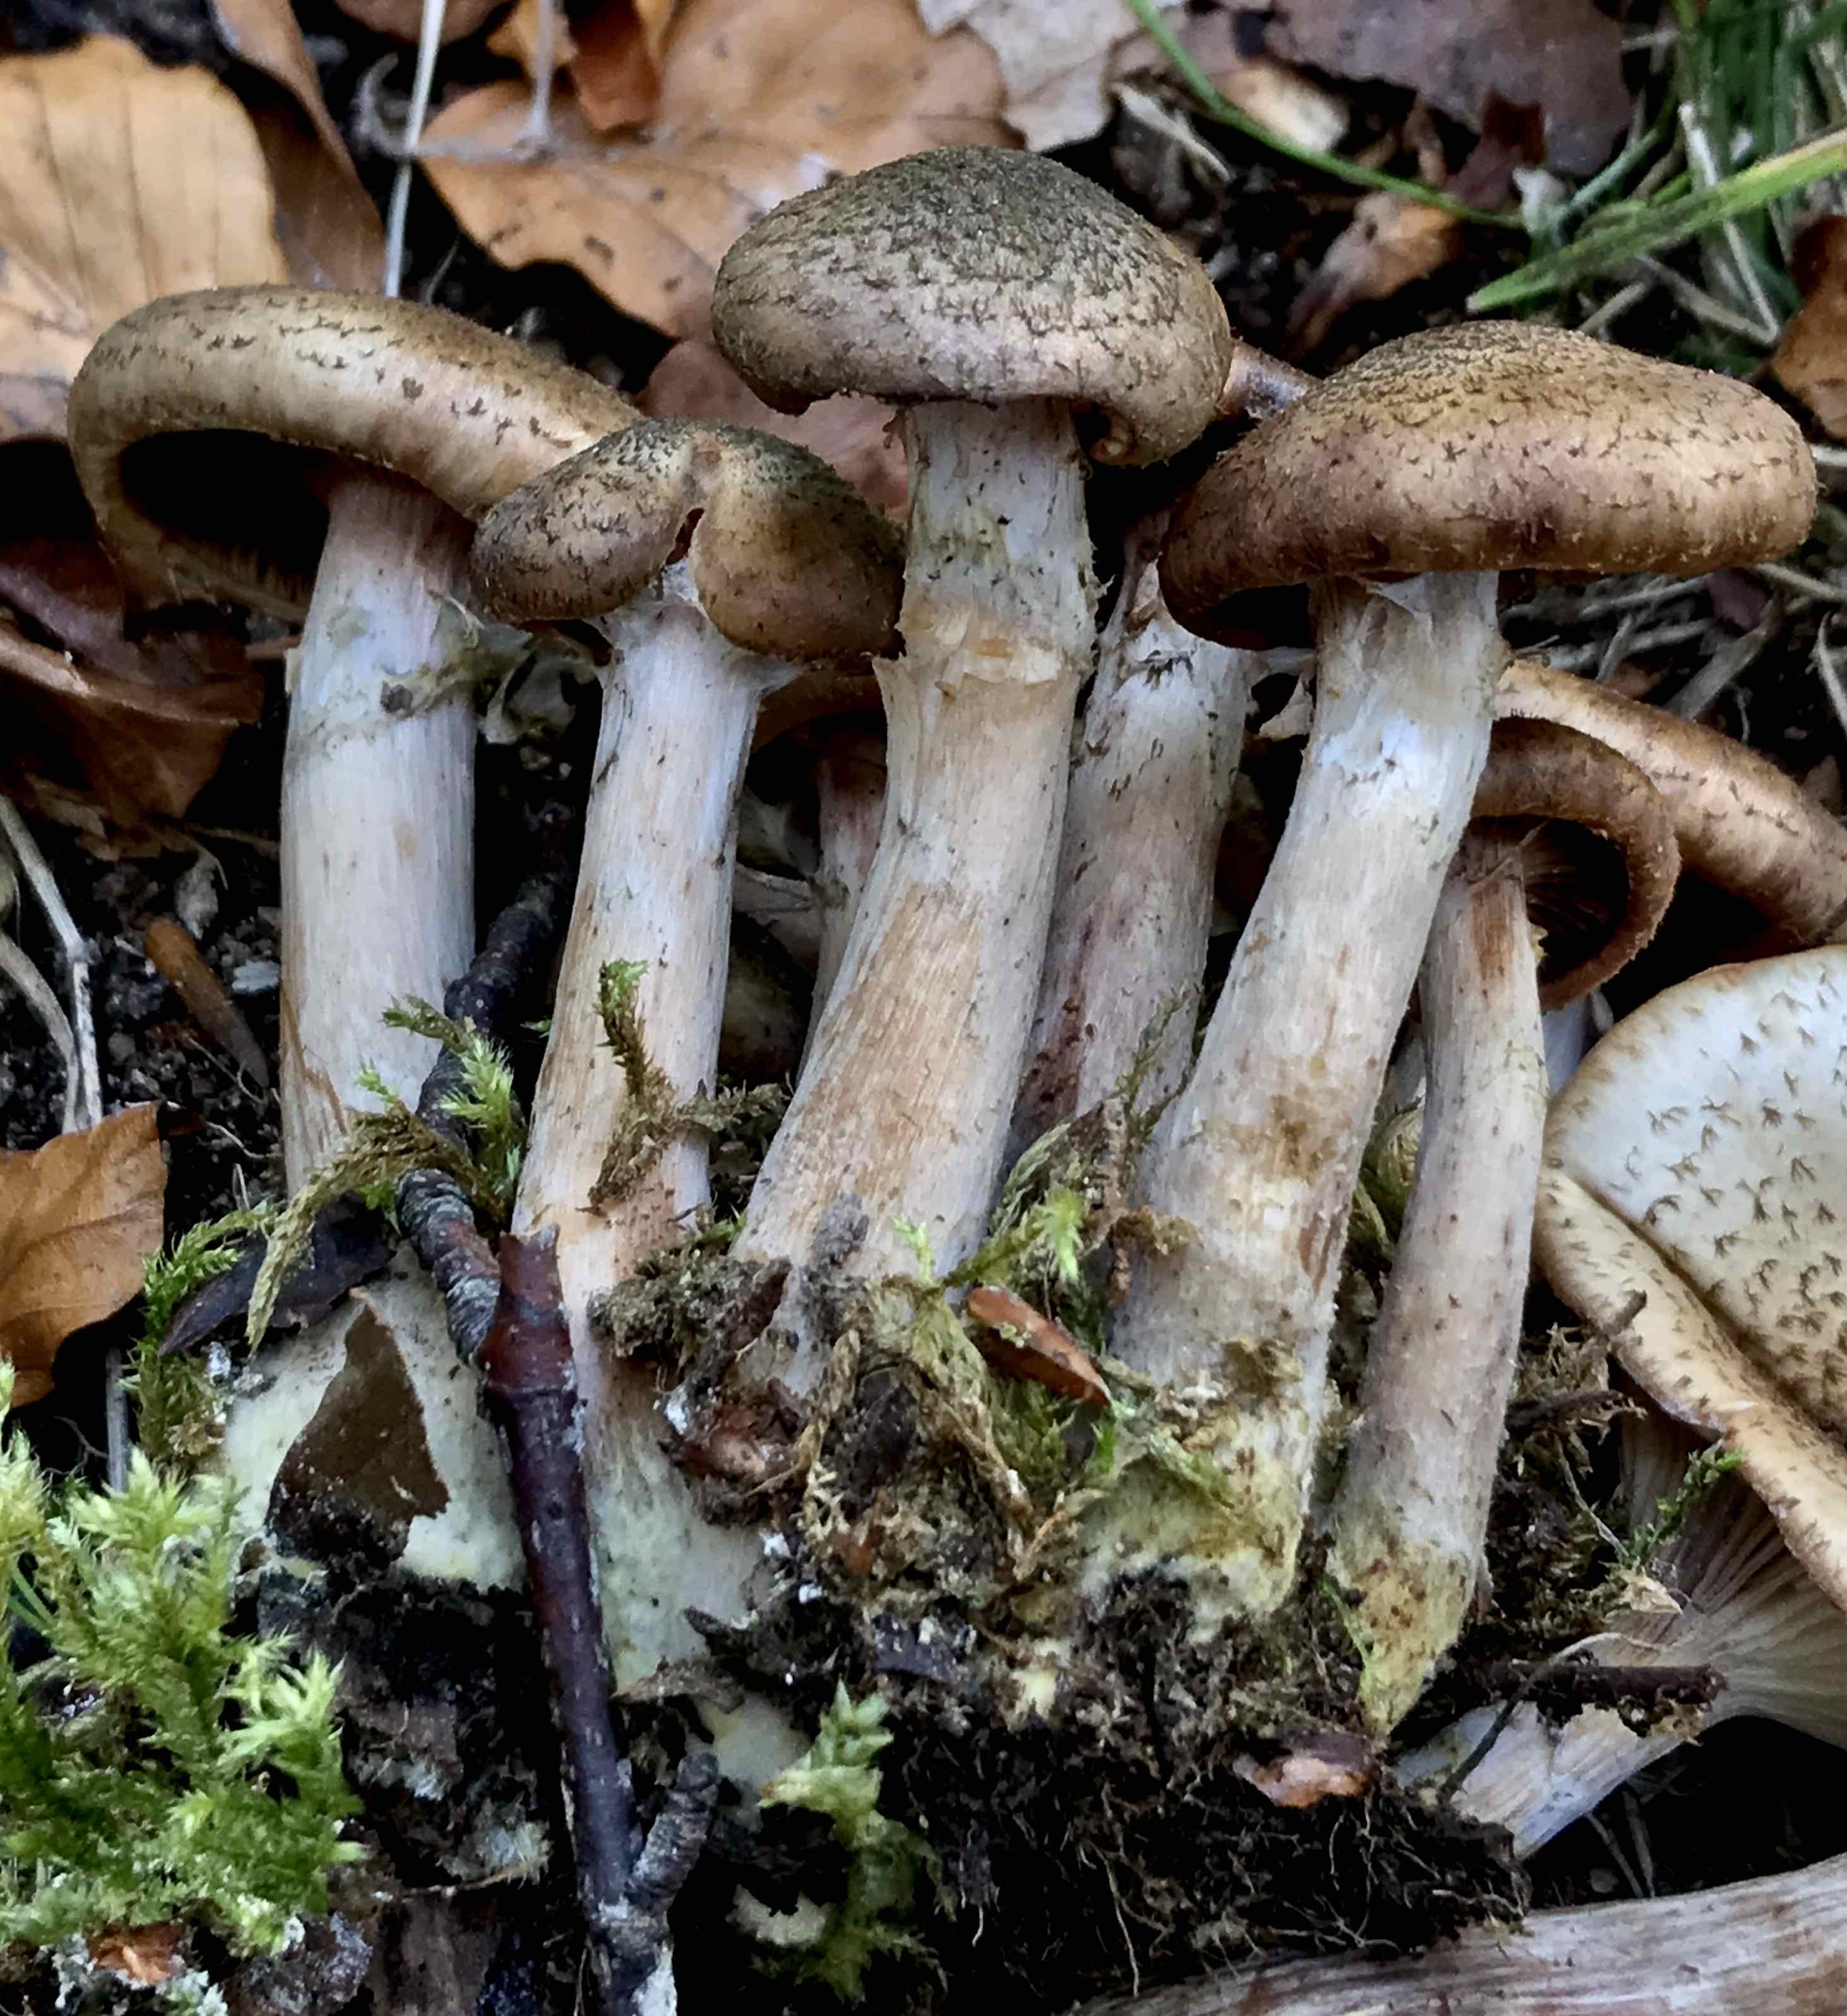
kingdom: Fungi
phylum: Basidiomycota
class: Agaricomycetes
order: Agaricales
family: Physalacriaceae
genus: Armillaria
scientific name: Armillaria
